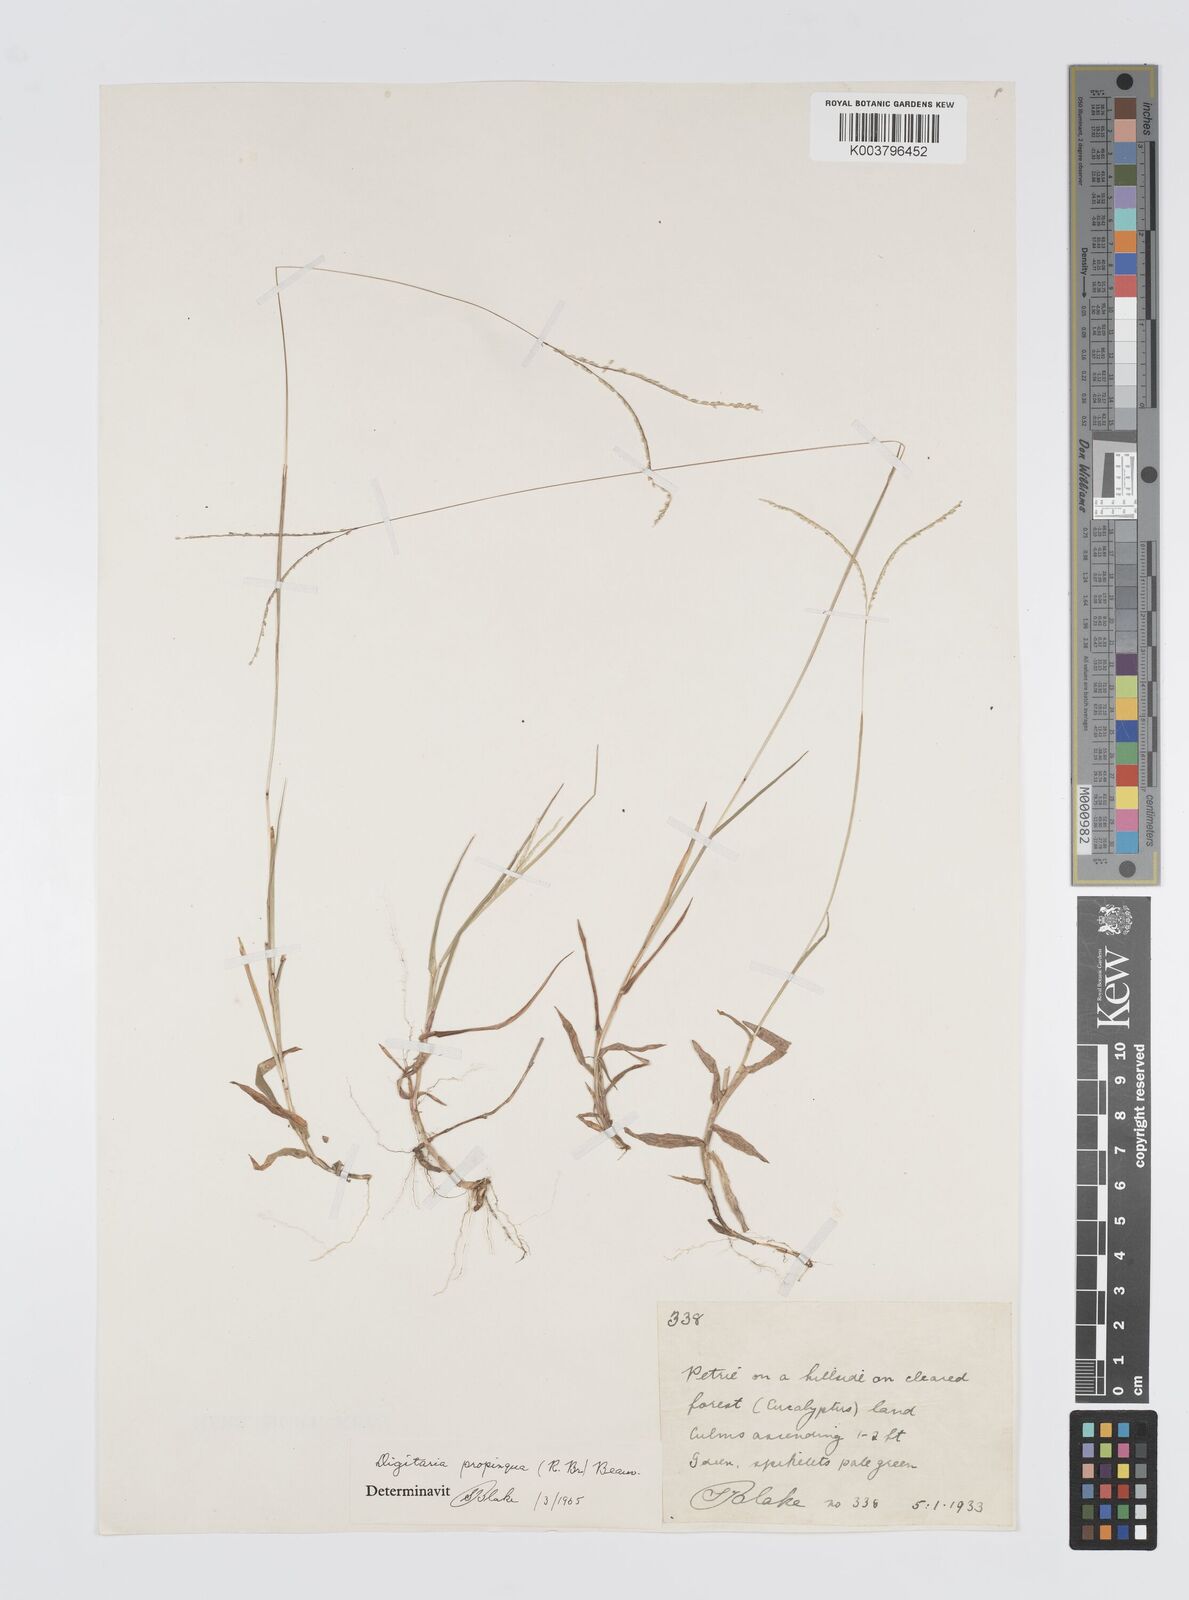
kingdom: Plantae
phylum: Tracheophyta
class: Liliopsida
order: Poales
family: Poaceae
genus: Digitaria
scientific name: Digitaria longiflora
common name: Wire crabgrass
